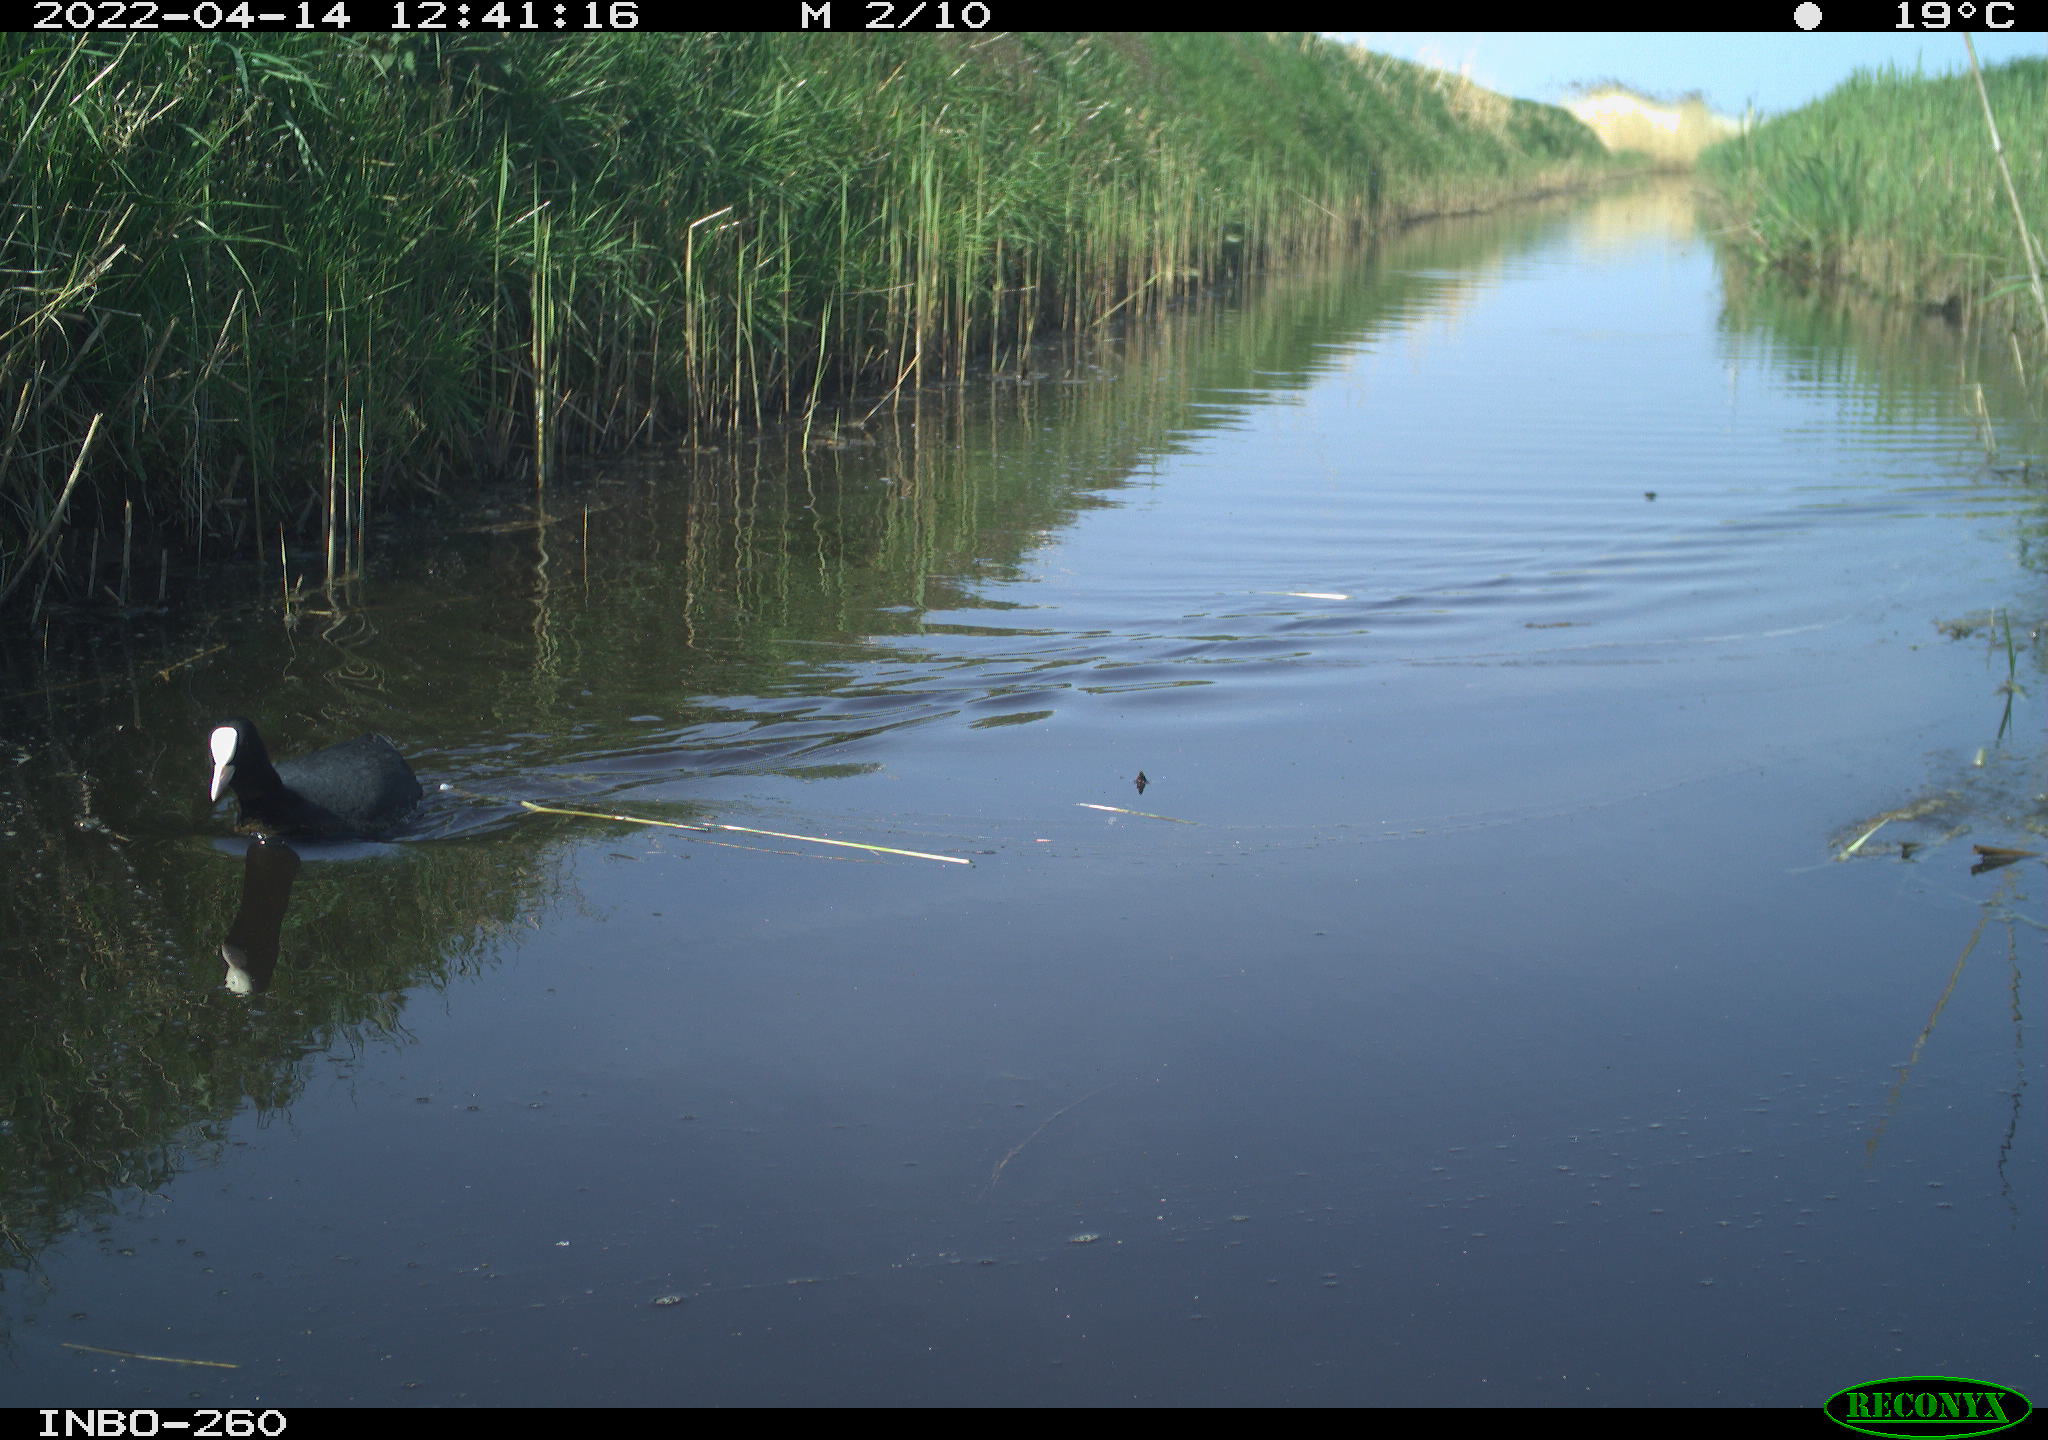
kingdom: Animalia
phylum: Chordata
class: Aves
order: Gruiformes
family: Rallidae
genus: Fulica
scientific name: Fulica atra
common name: Eurasian coot
